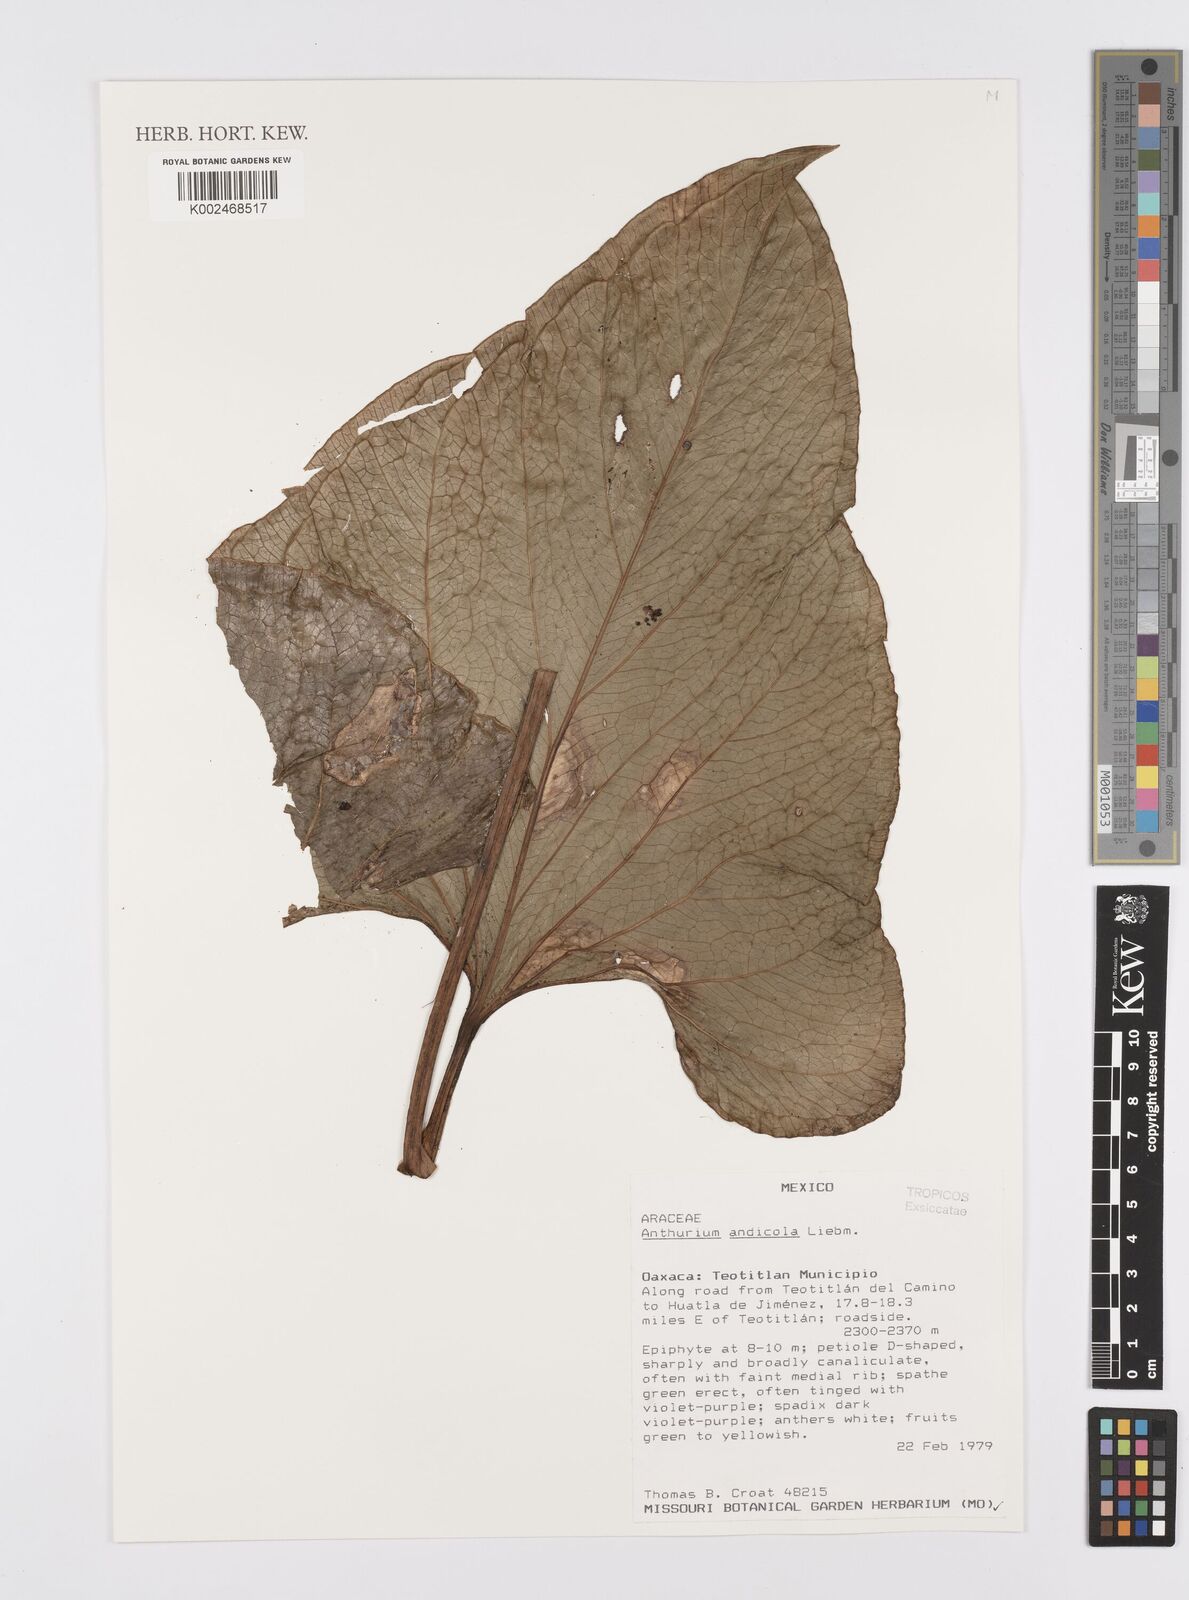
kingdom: Plantae
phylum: Tracheophyta
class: Liliopsida
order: Alismatales
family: Araceae
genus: Anthurium
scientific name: Anthurium andicola
